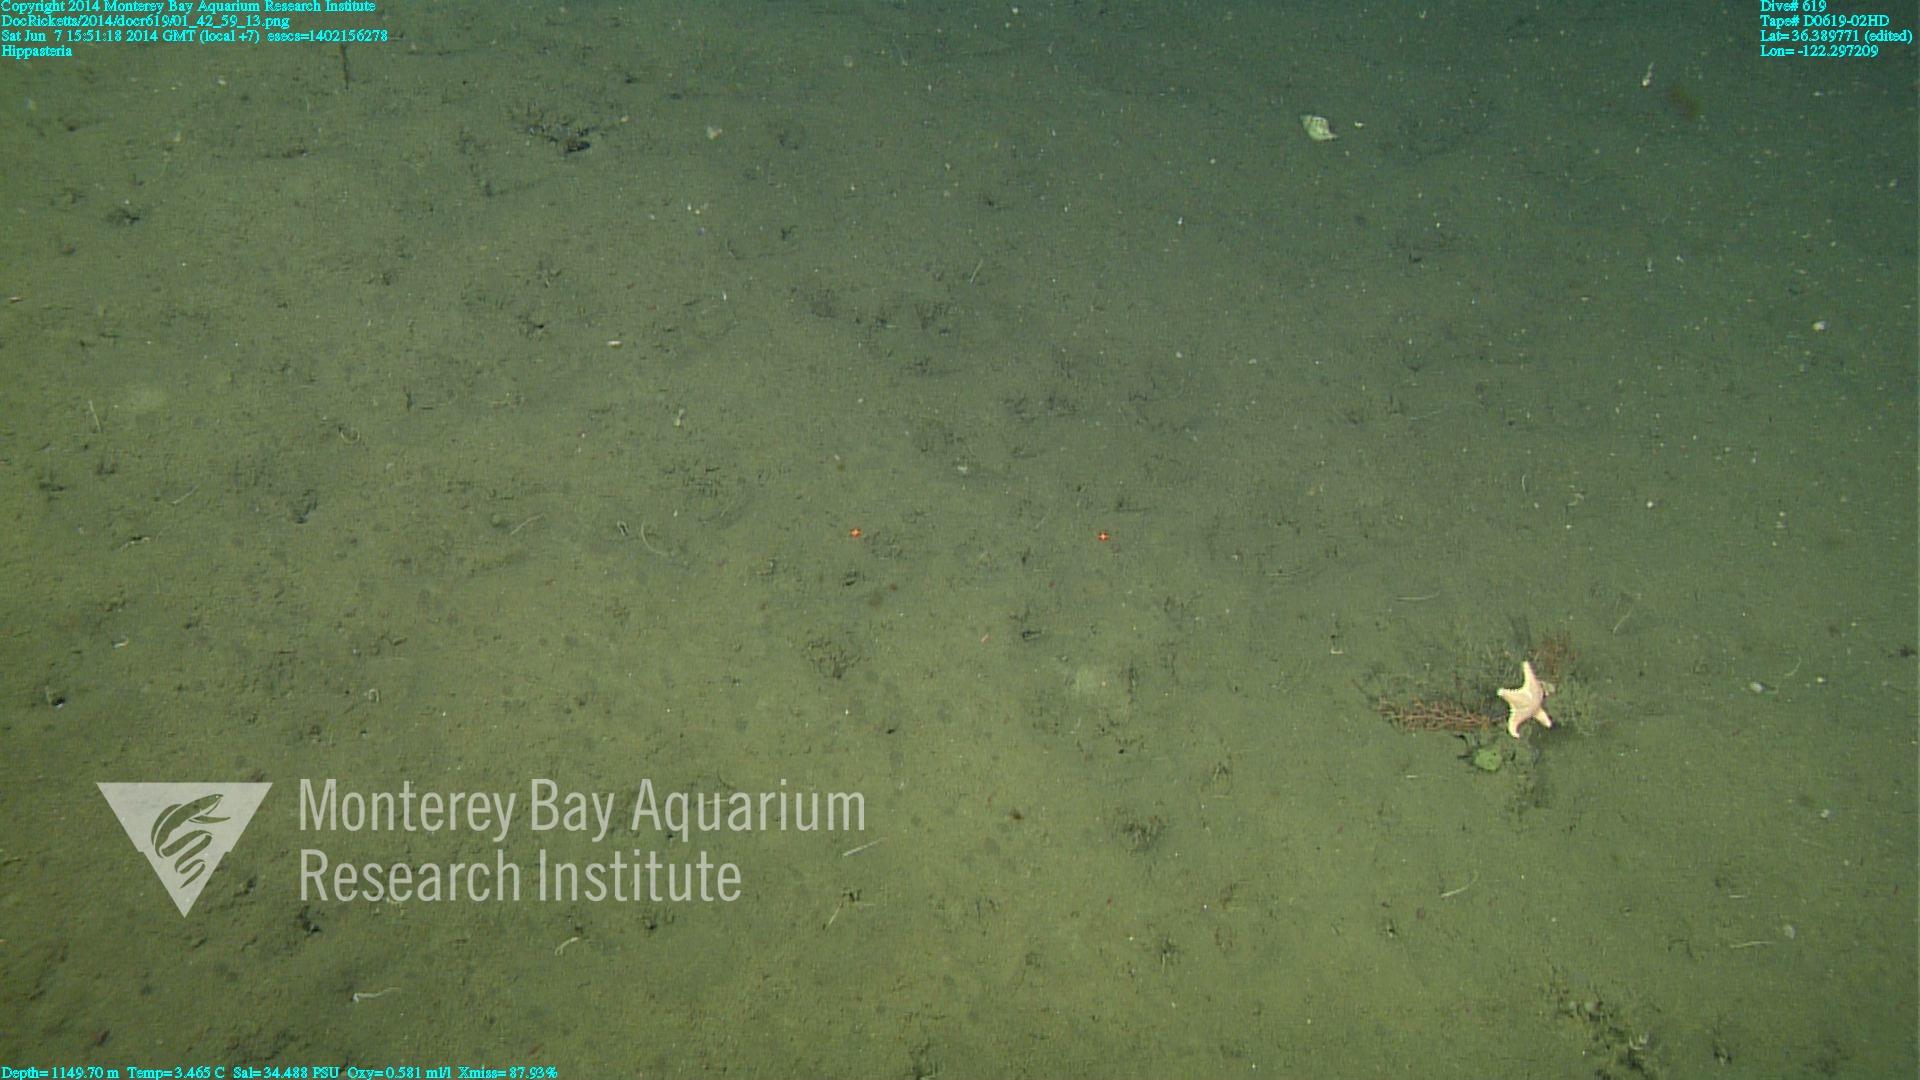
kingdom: Animalia
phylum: Cnidaria
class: Anthozoa
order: Malacalcyonacea
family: Gorgoniidae
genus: Callistephanus
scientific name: Callistephanus kofoidi
